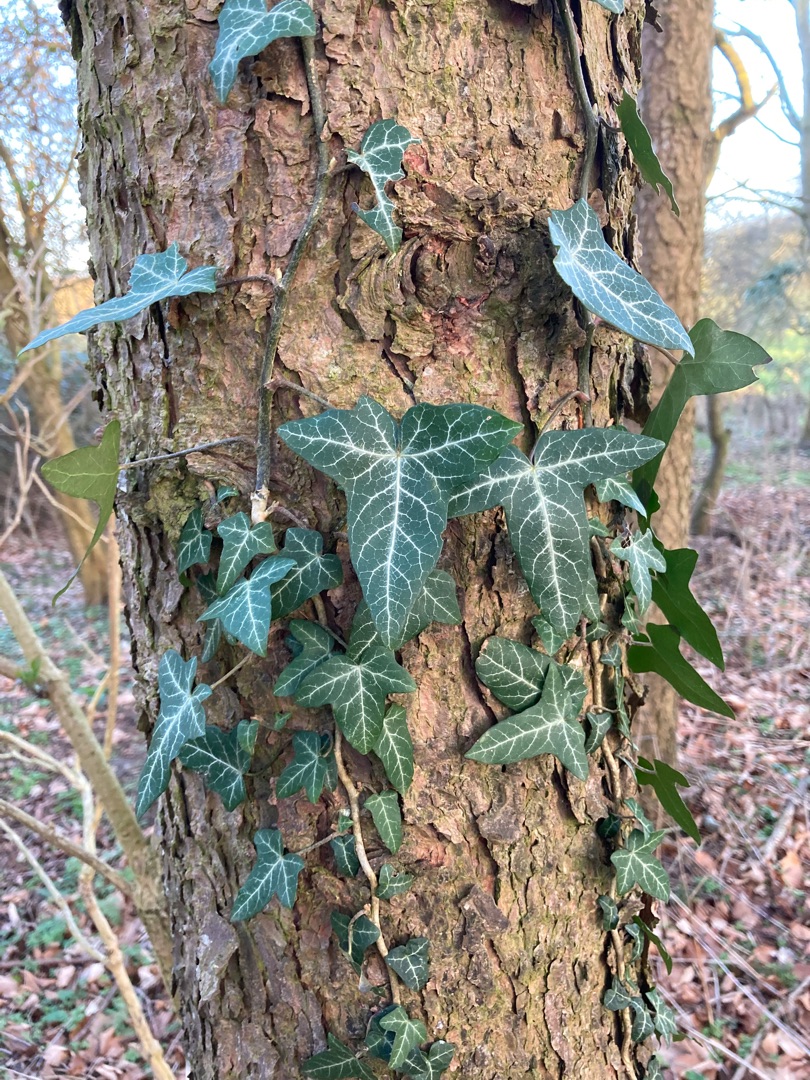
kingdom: Plantae
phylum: Tracheophyta
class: Magnoliopsida
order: Apiales
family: Araliaceae
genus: Hedera
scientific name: Hedera helix
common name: Vedbend
